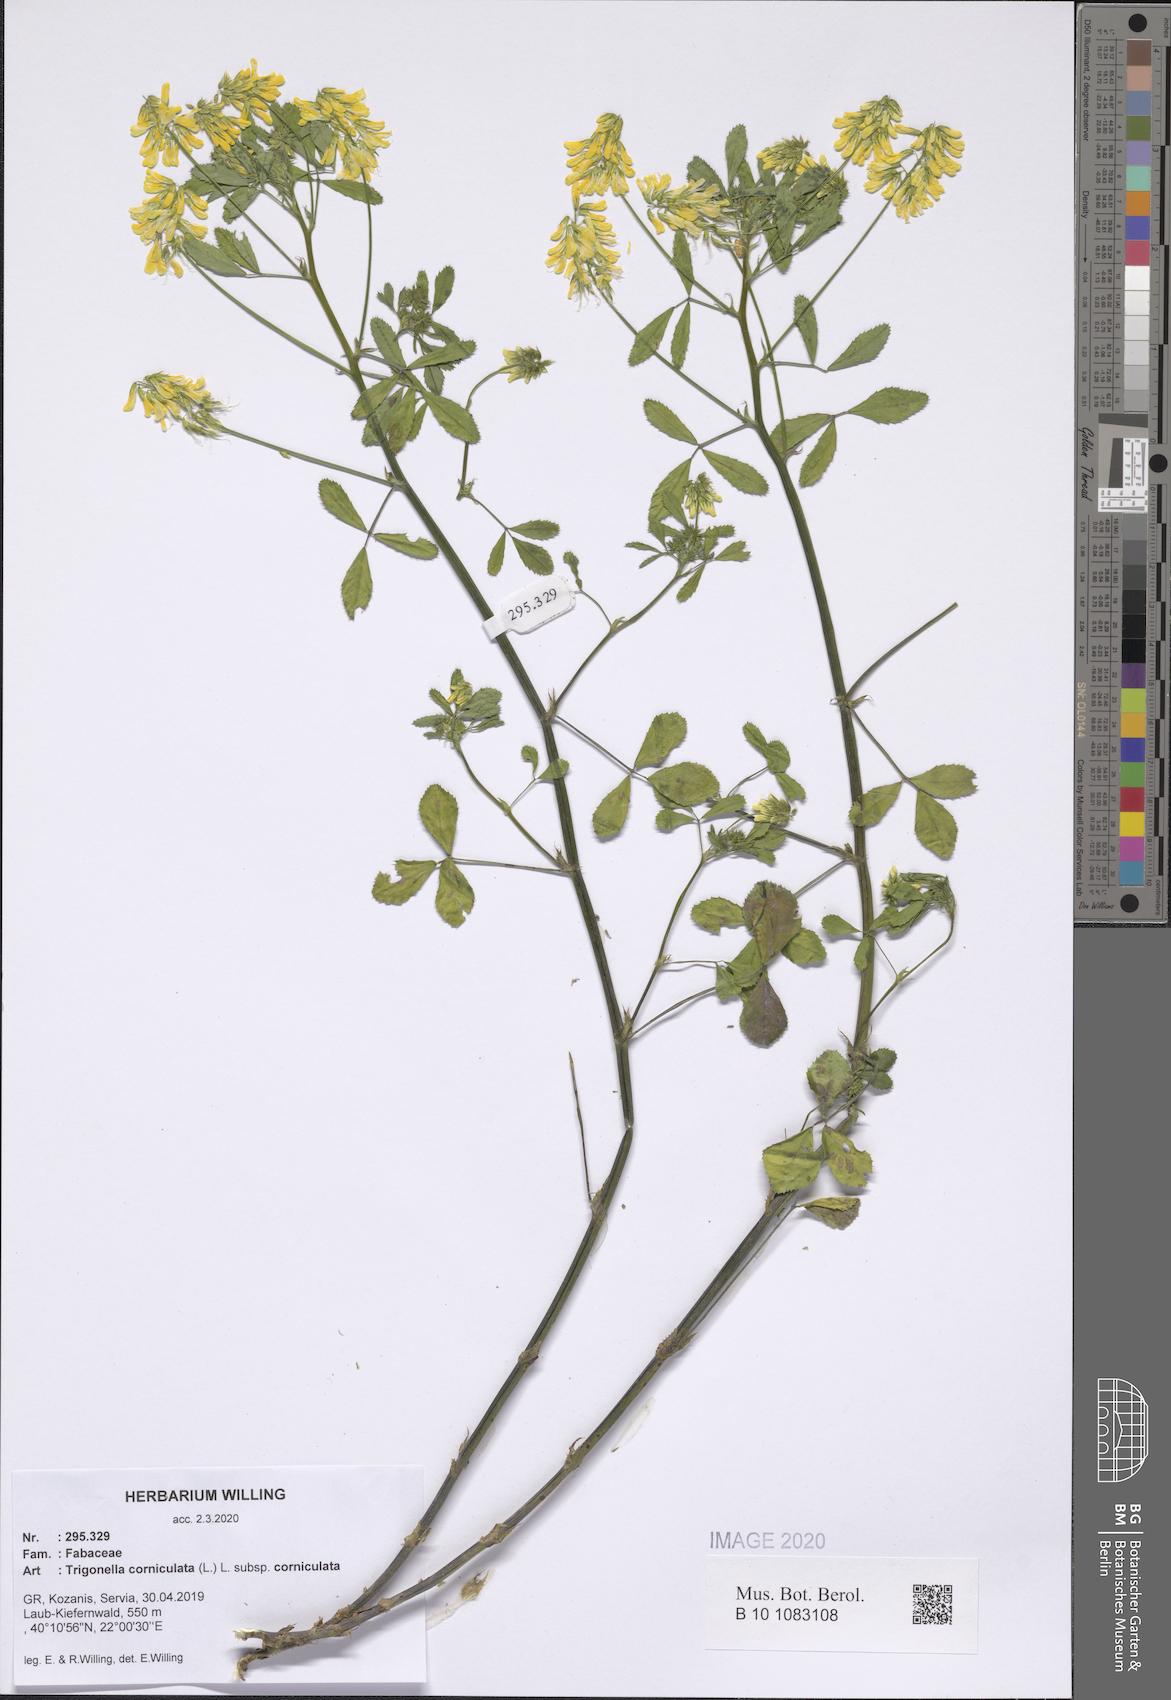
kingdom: Plantae
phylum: Tracheophyta
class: Magnoliopsida
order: Fabales
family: Fabaceae
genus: Trigonella
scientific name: Trigonella corniculata
